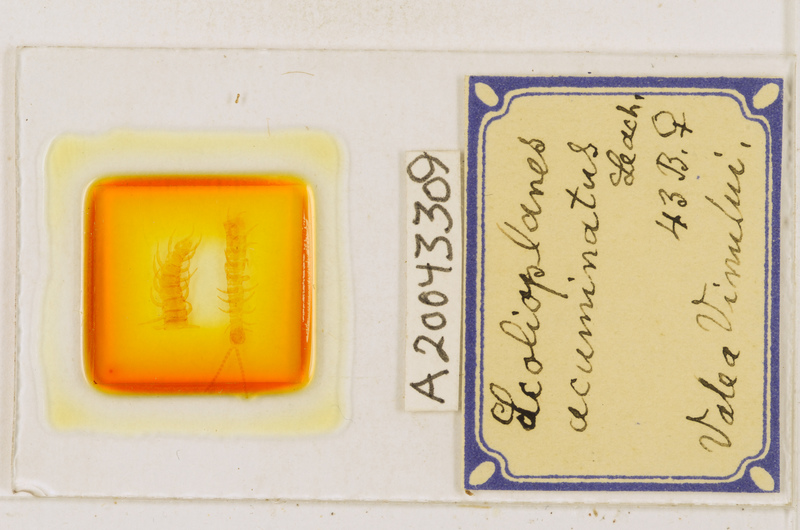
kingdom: Animalia
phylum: Arthropoda
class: Chilopoda
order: Geophilomorpha
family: Linotaeniidae
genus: Strigamia
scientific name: Strigamia acuminata
